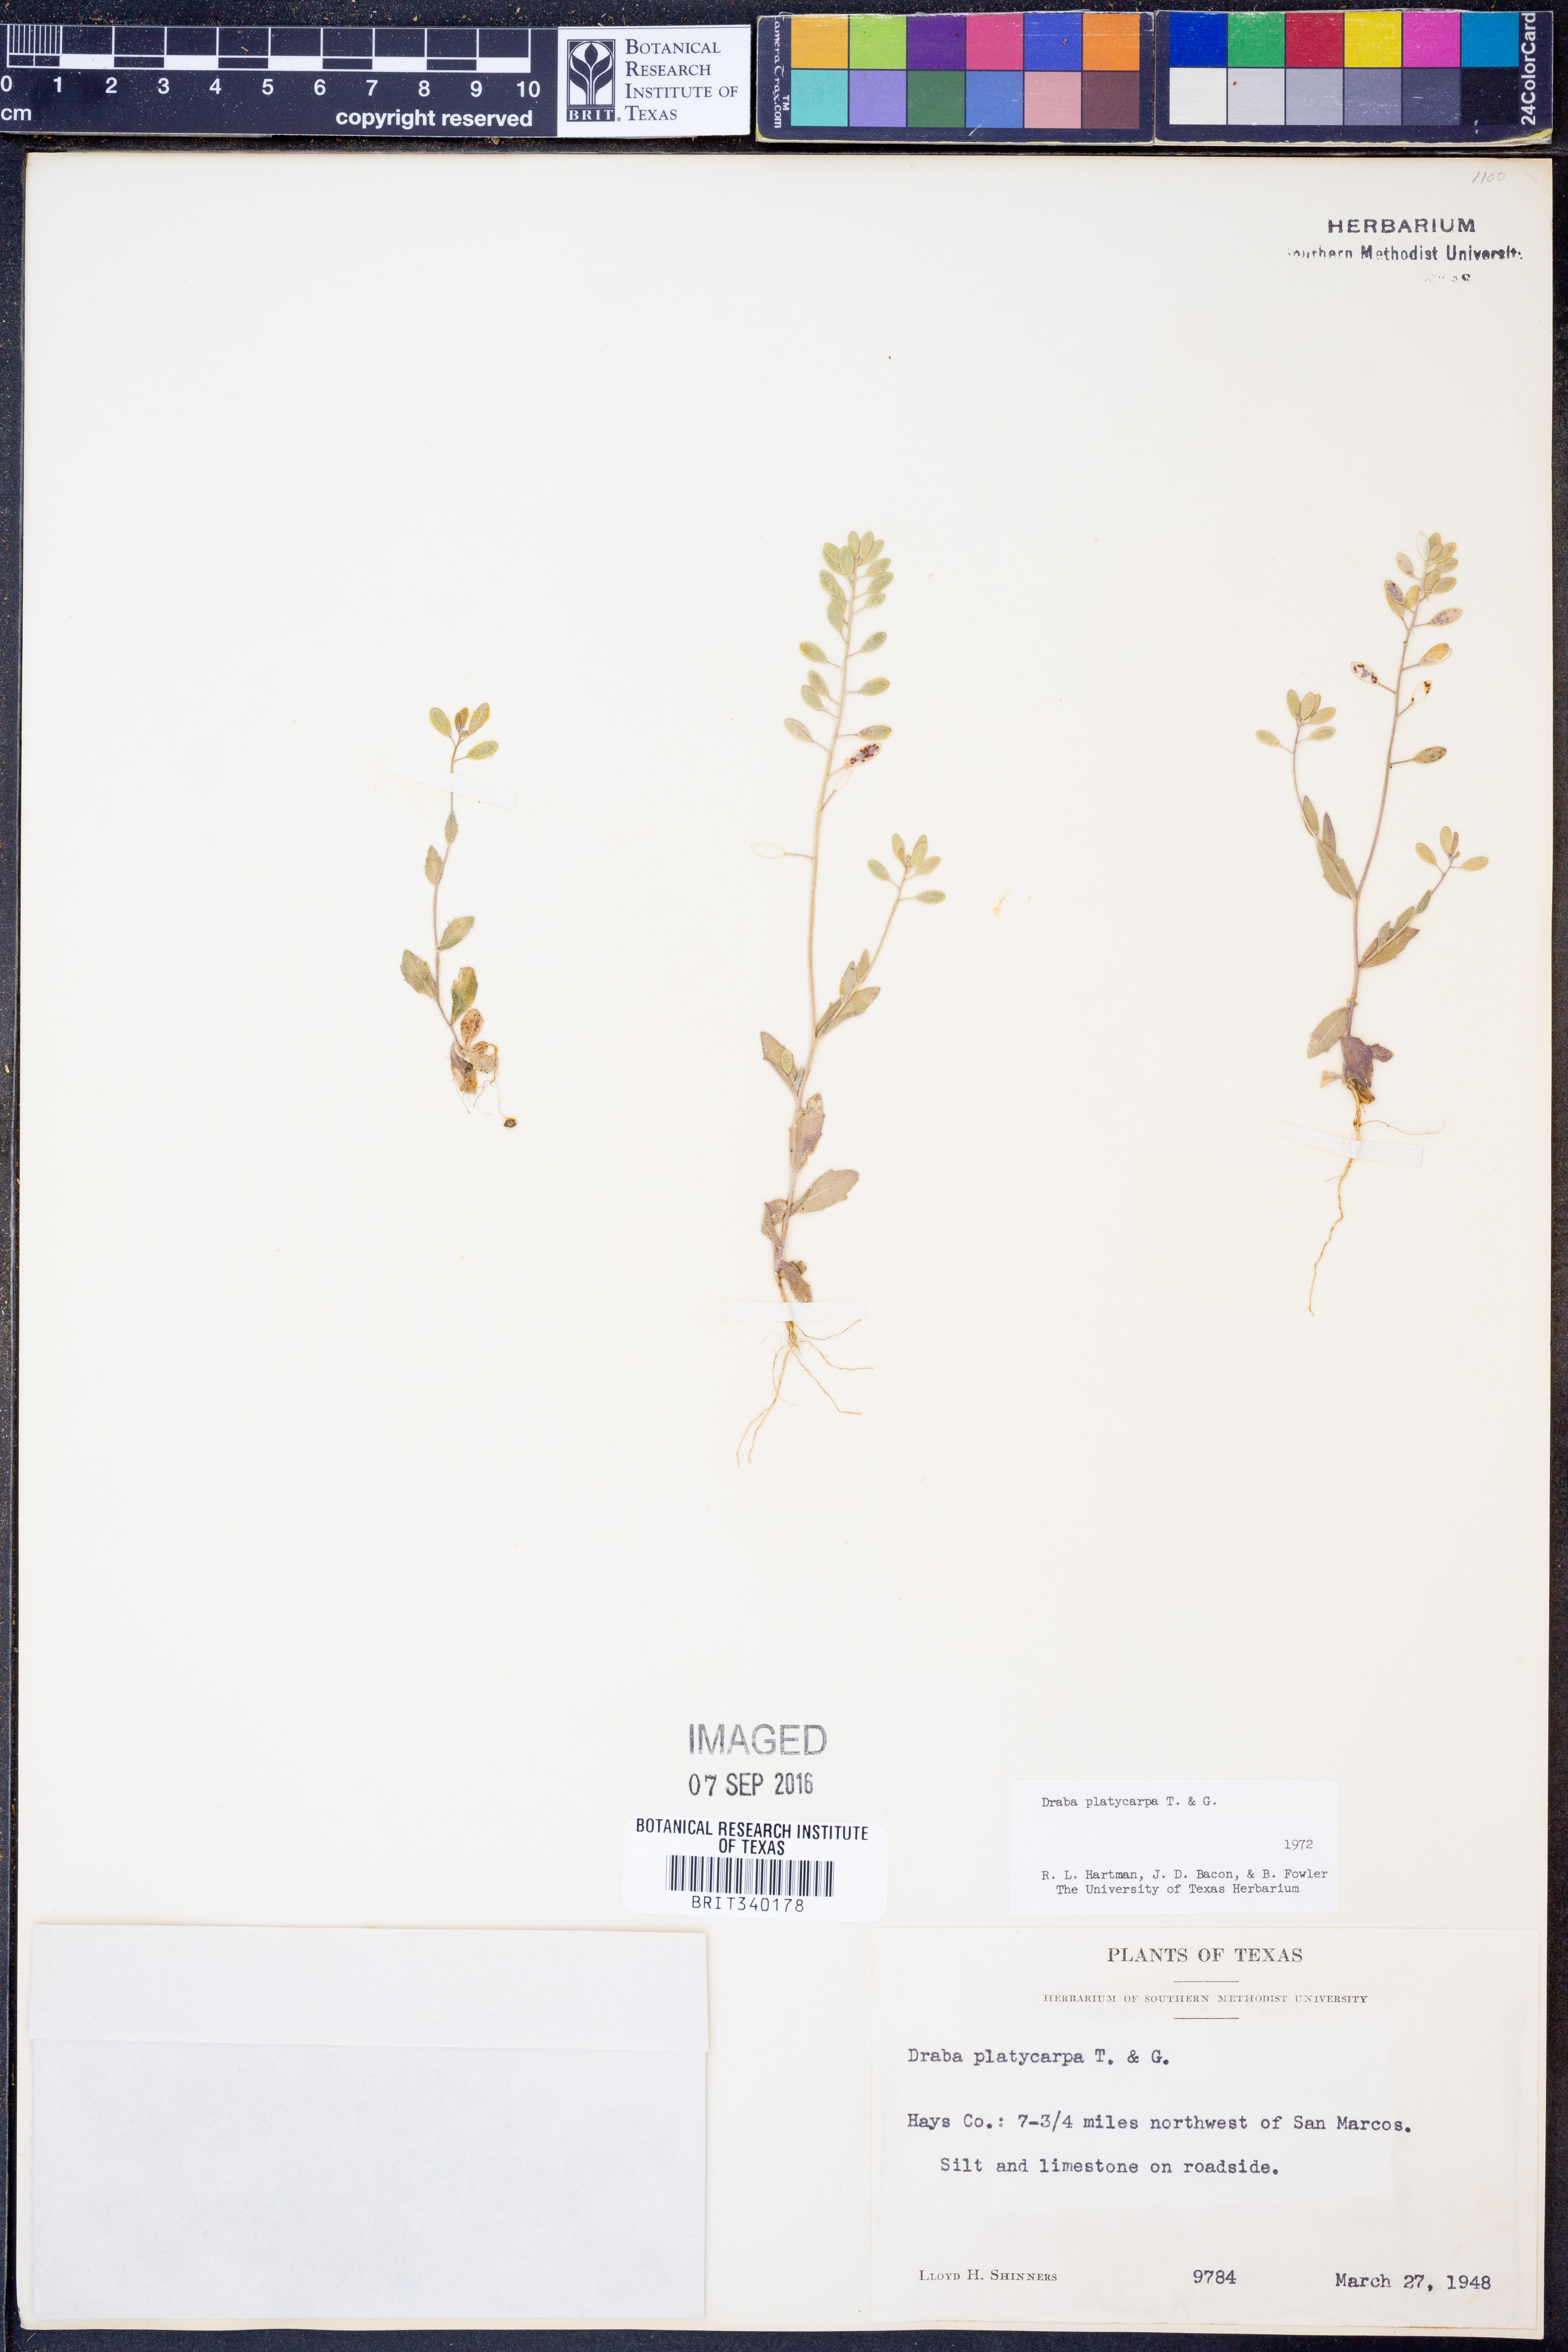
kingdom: Plantae
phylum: Tracheophyta
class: Magnoliopsida
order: Brassicales
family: Brassicaceae
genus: Tomostima
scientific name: Tomostima platycarpa
